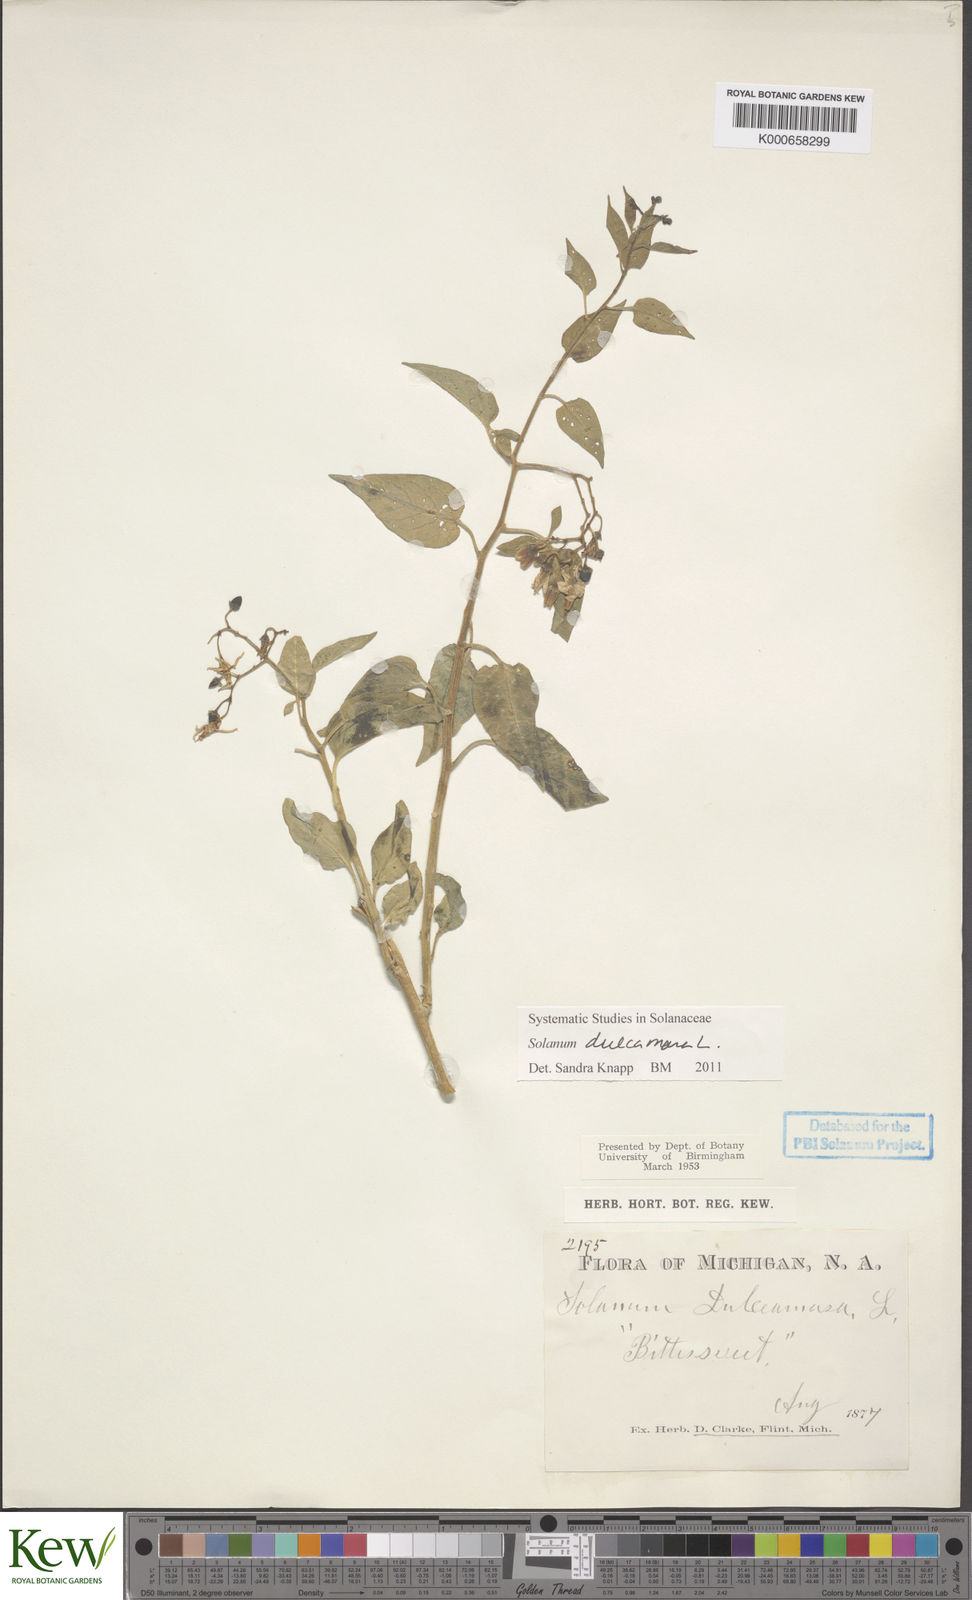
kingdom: Plantae
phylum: Tracheophyta
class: Magnoliopsida
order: Solanales
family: Solanaceae
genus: Solanum
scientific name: Solanum dulcamara
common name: Climbing nightshade
